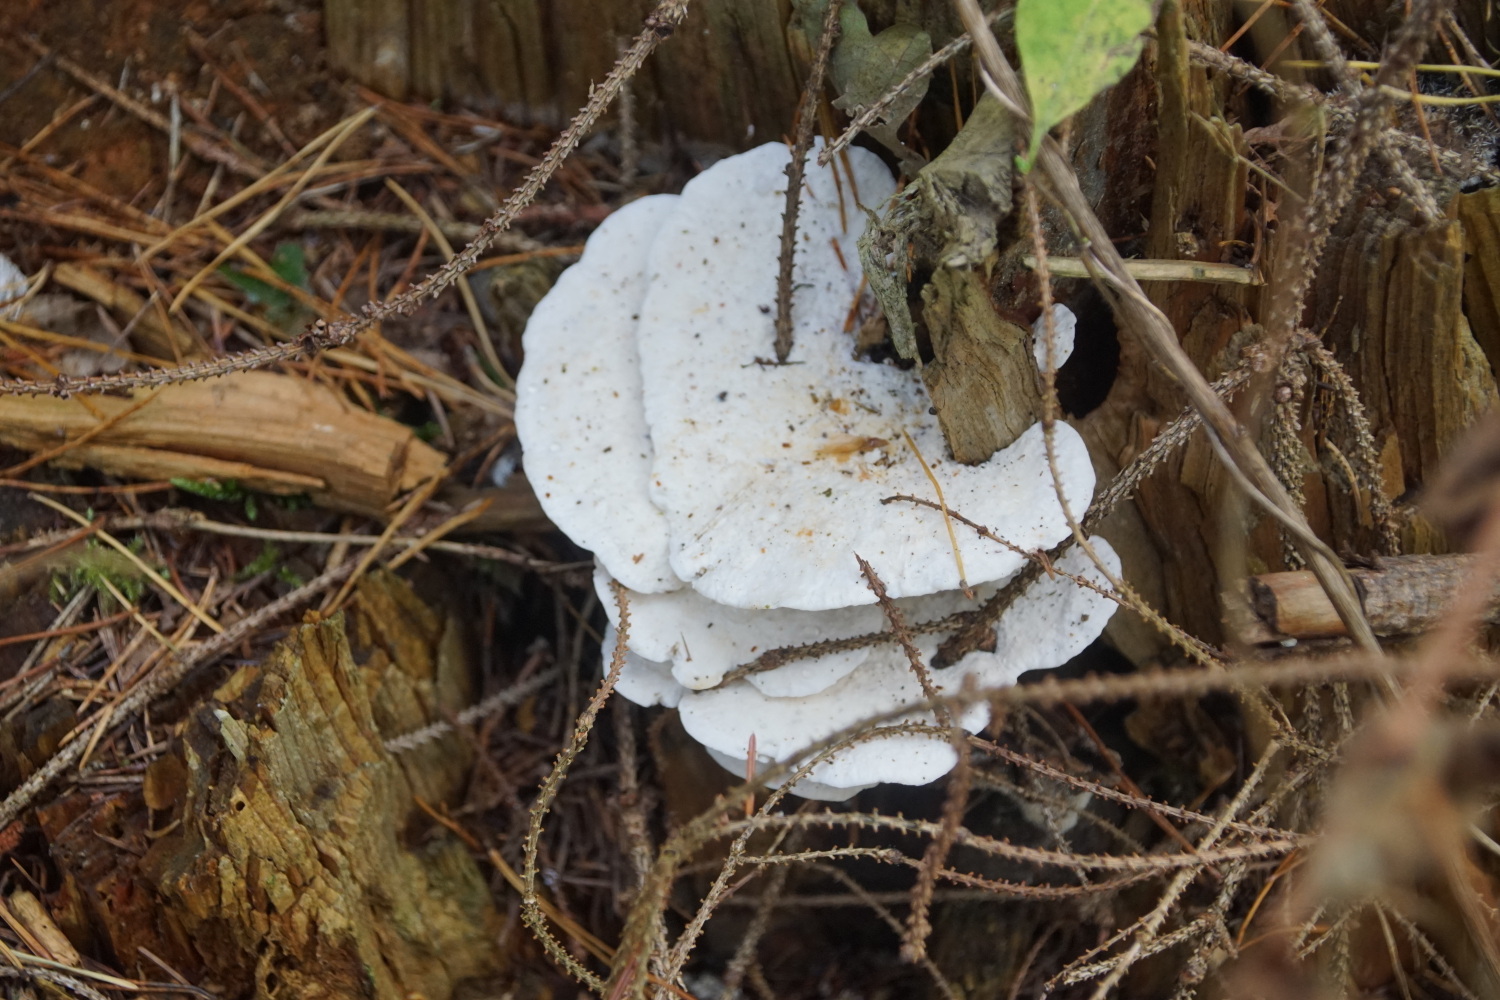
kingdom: Fungi
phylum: Basidiomycota
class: Agaricomycetes
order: Polyporales
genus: Amaropostia
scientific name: Amaropostia stiptica
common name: bitter kødporesvamp
